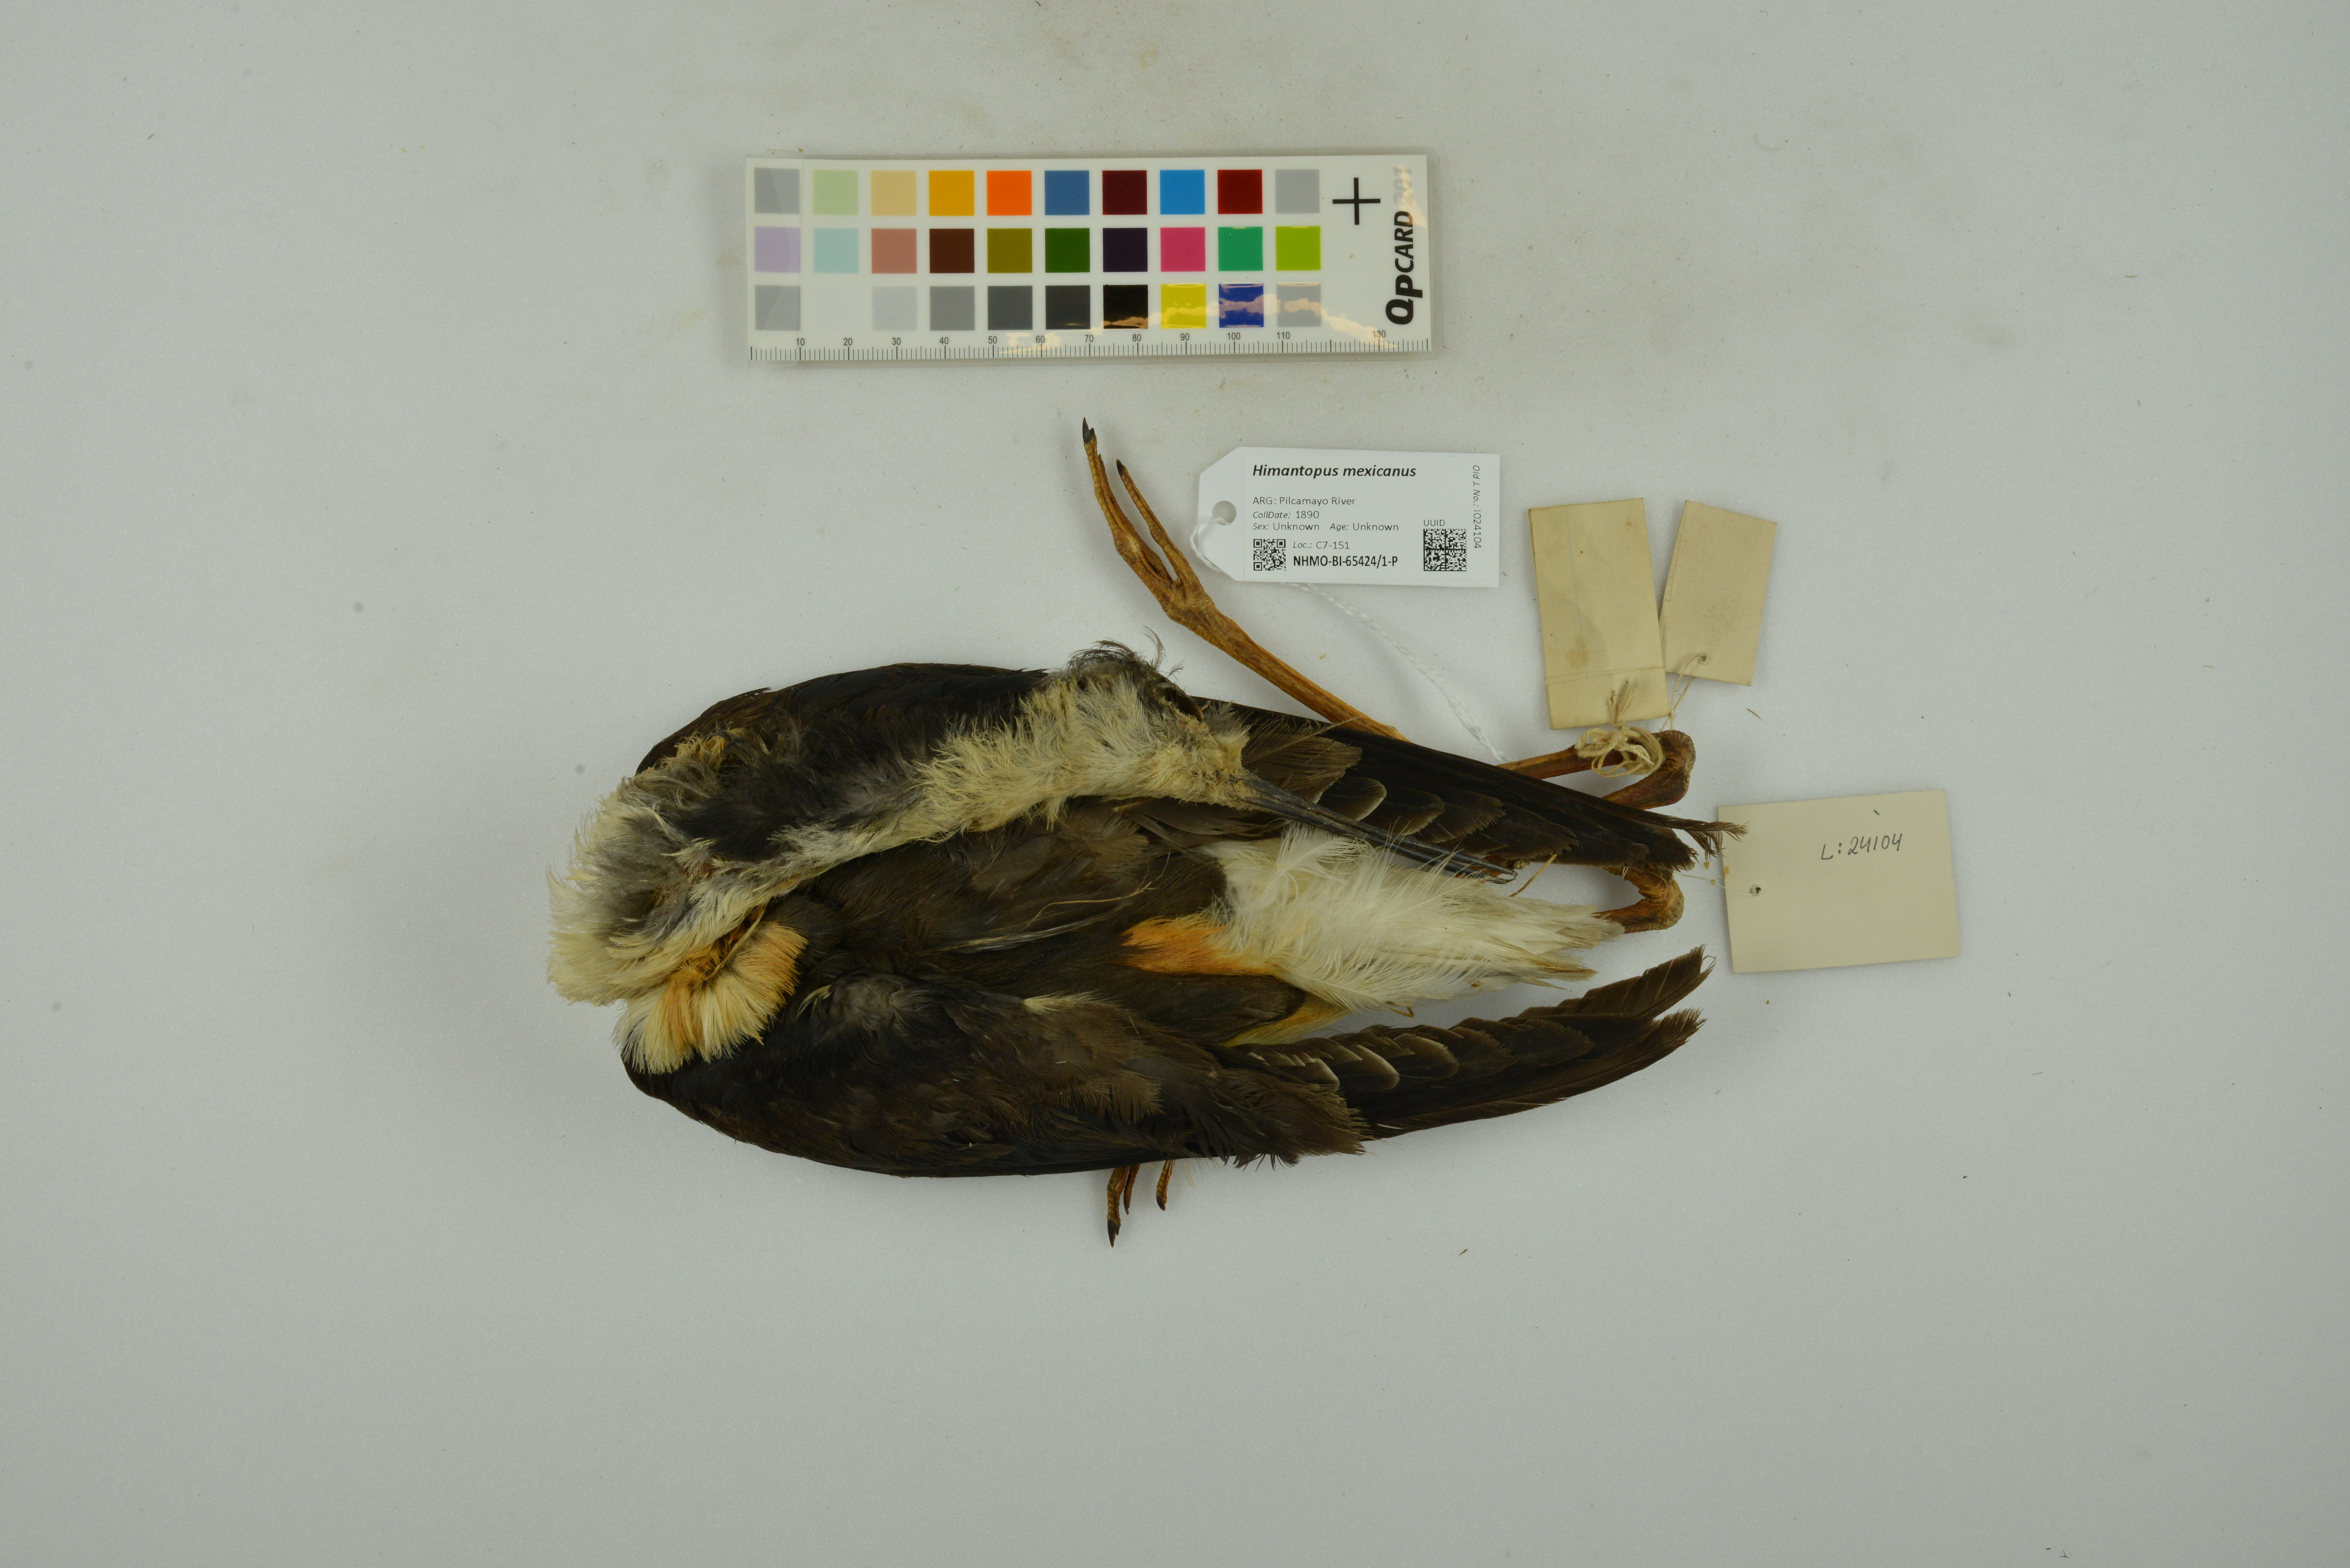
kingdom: Animalia
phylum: Chordata
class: Aves
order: Charadriiformes
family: Recurvirostridae
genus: Himantopus
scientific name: Himantopus mexicanus
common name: Black-necked stilt
